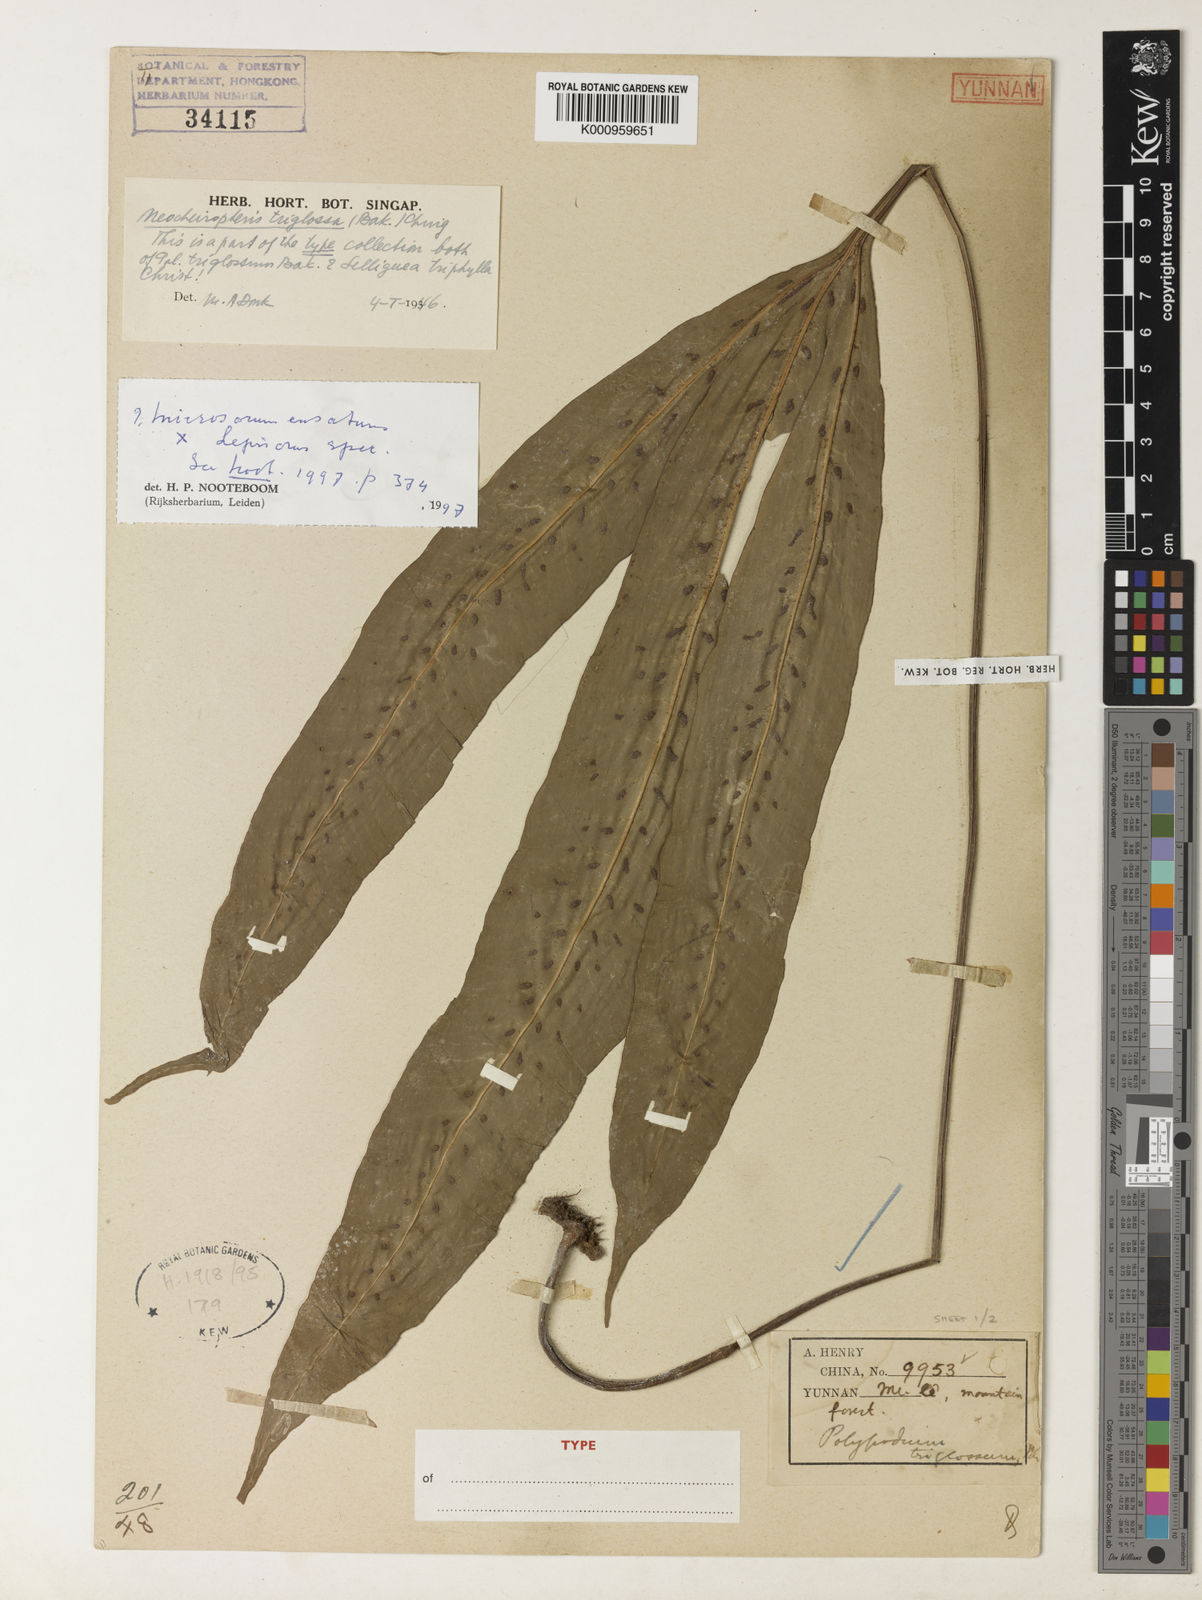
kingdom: Plantae
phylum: Tracheophyta
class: Polypodiopsida
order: Polypodiales
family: Polypodiaceae
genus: Lepisorus
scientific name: Lepisorus triglossus
